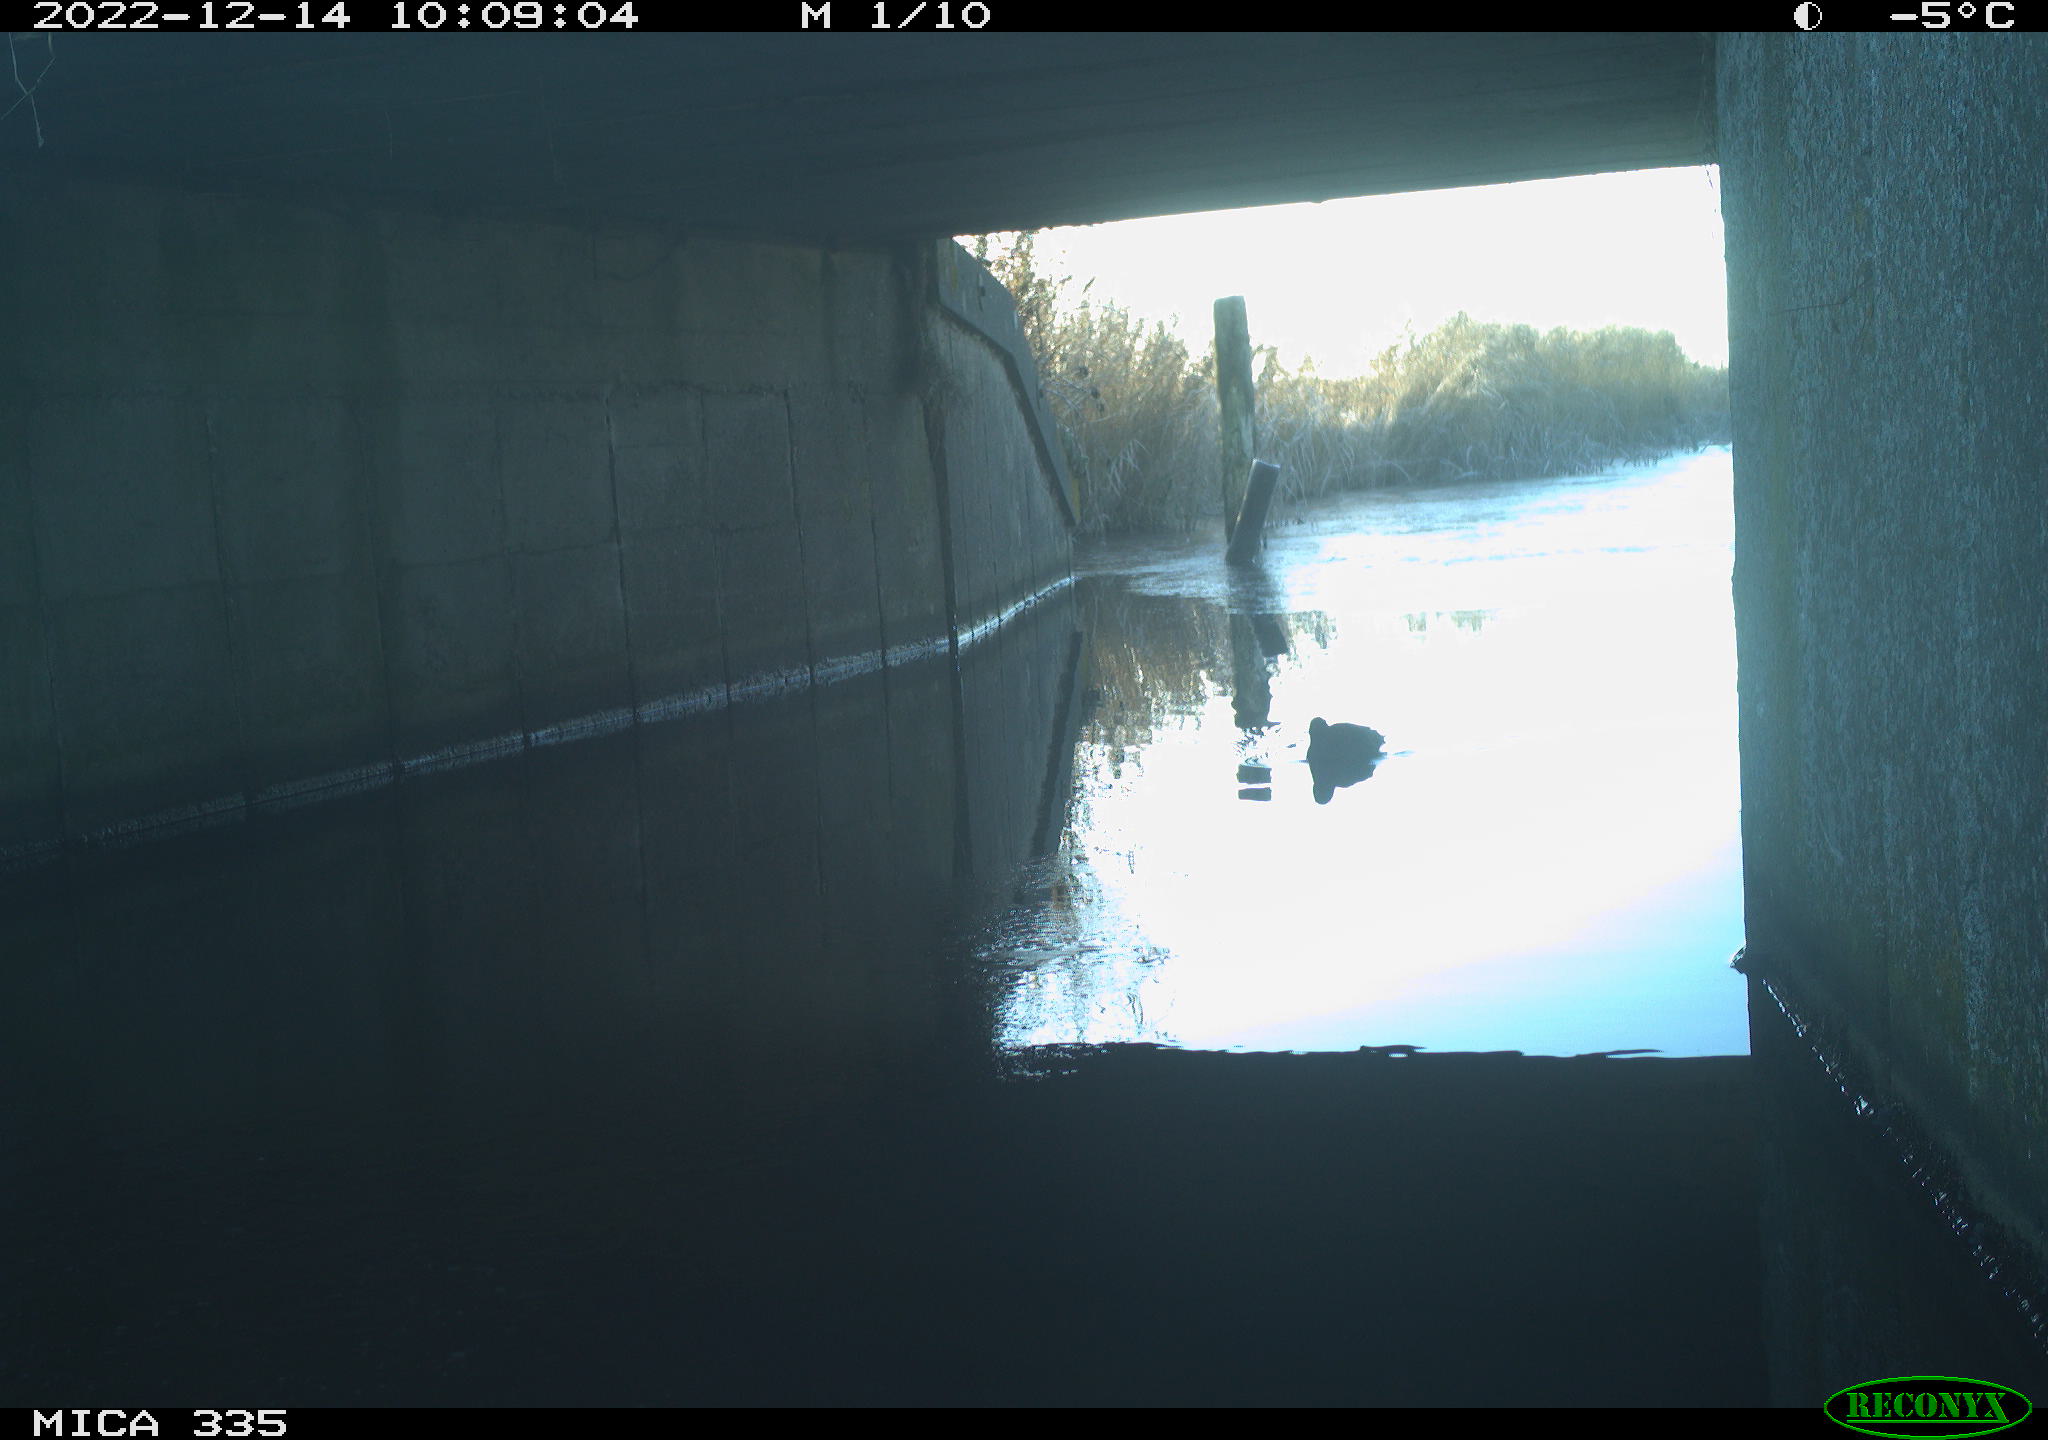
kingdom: Animalia
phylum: Chordata
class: Aves
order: Anseriformes
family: Anatidae
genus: Anas
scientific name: Anas
